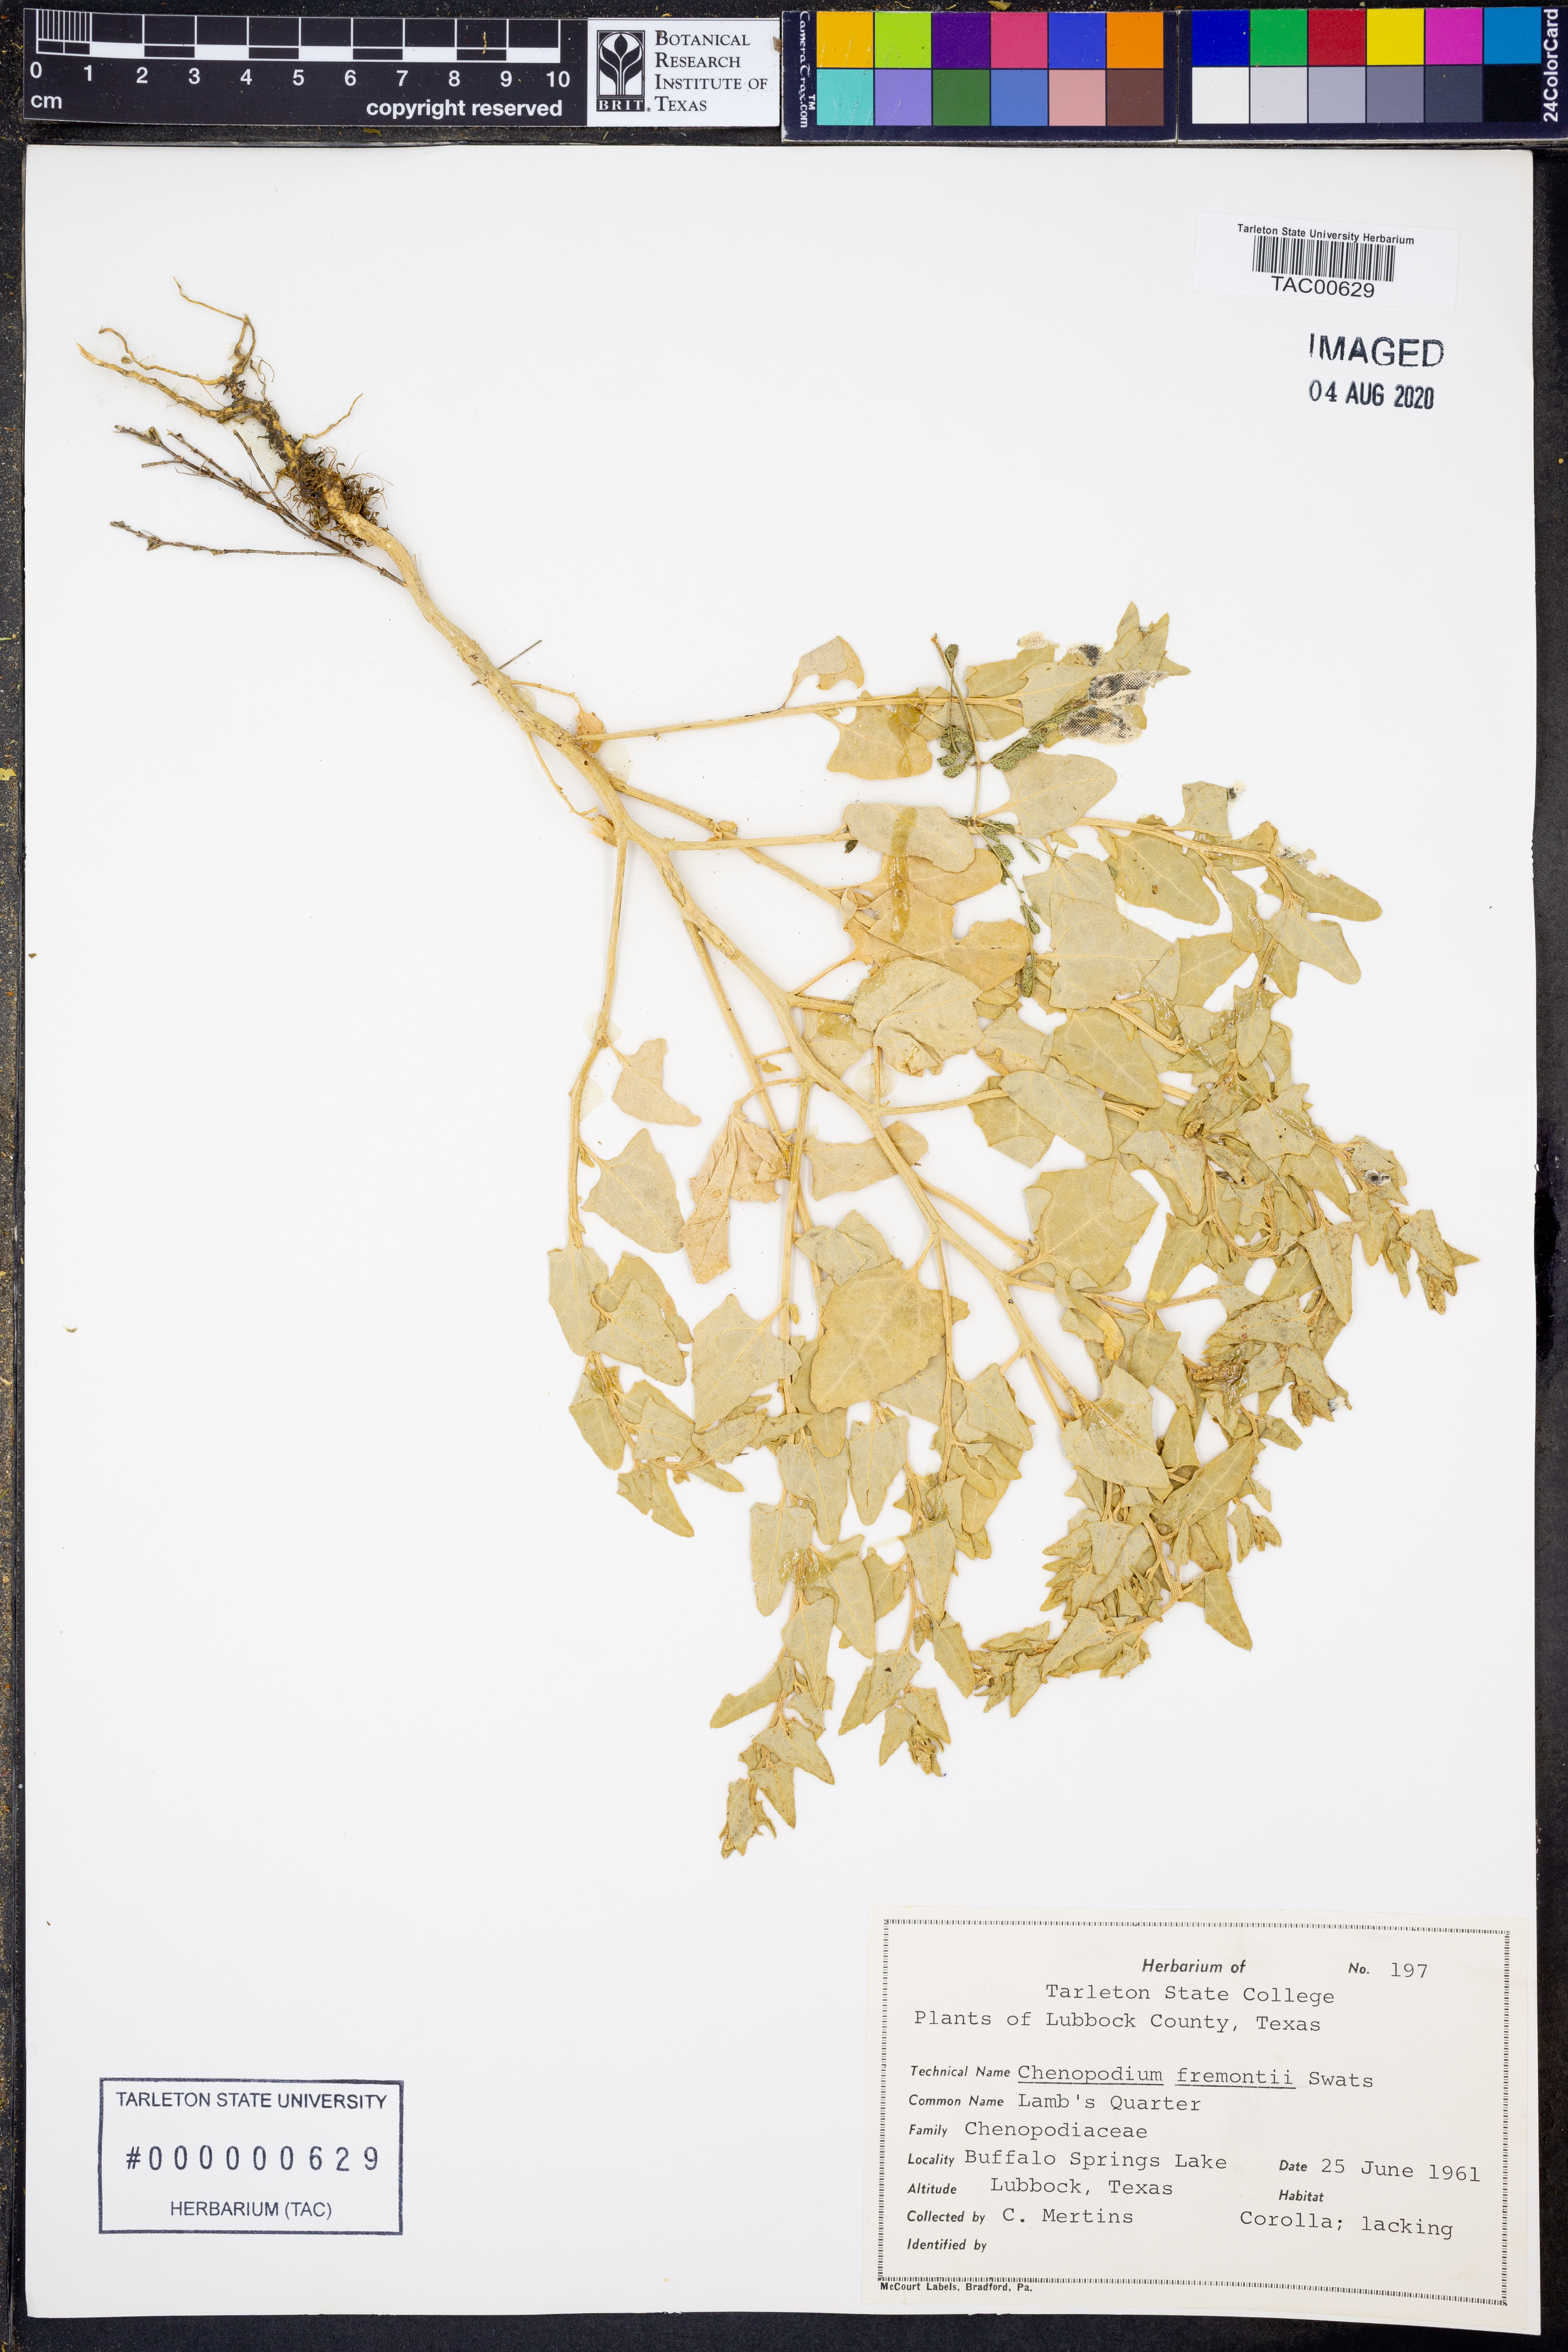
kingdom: Plantae
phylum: Tracheophyta
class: Magnoliopsida
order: Caryophyllales
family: Amaranthaceae
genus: Chenopodium
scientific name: Chenopodium fremontii
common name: Fremont's goosefoot
